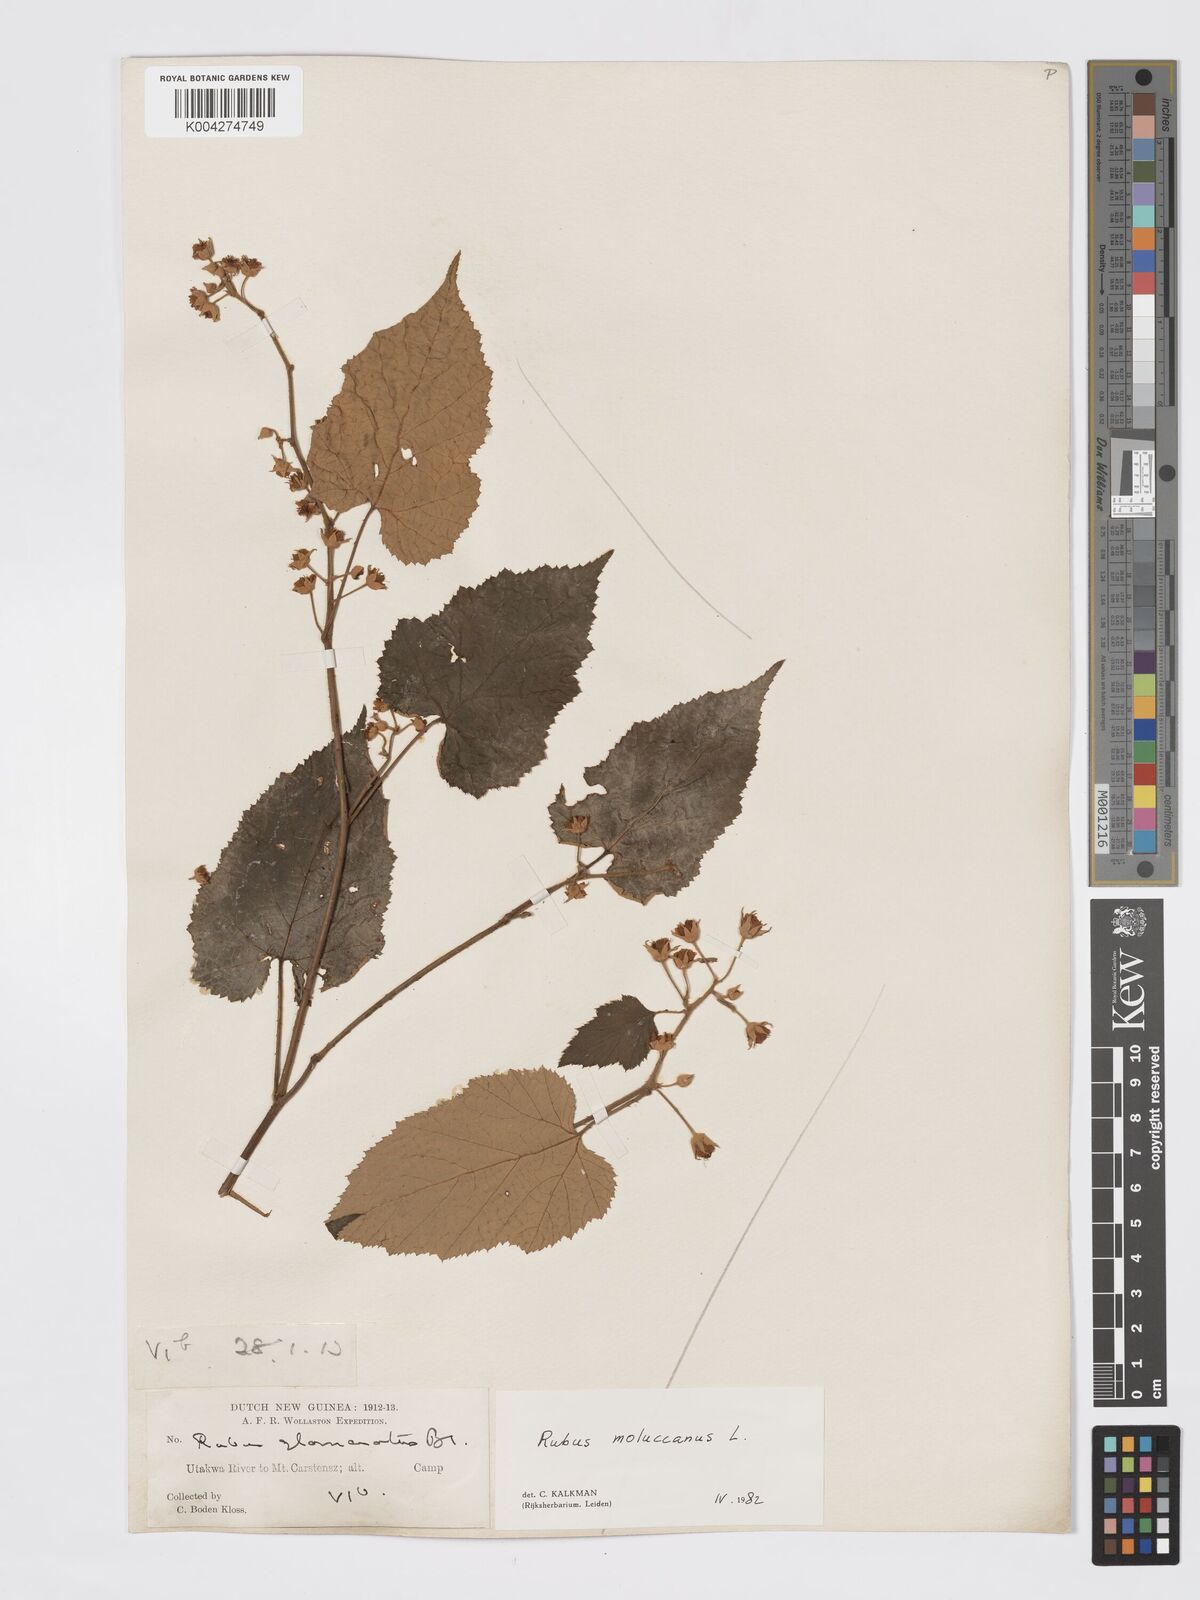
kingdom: Plantae
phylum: Tracheophyta
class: Magnoliopsida
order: Rosales
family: Rosaceae
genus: Rubus
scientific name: Rubus moluccanus
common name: Wild raspberry
